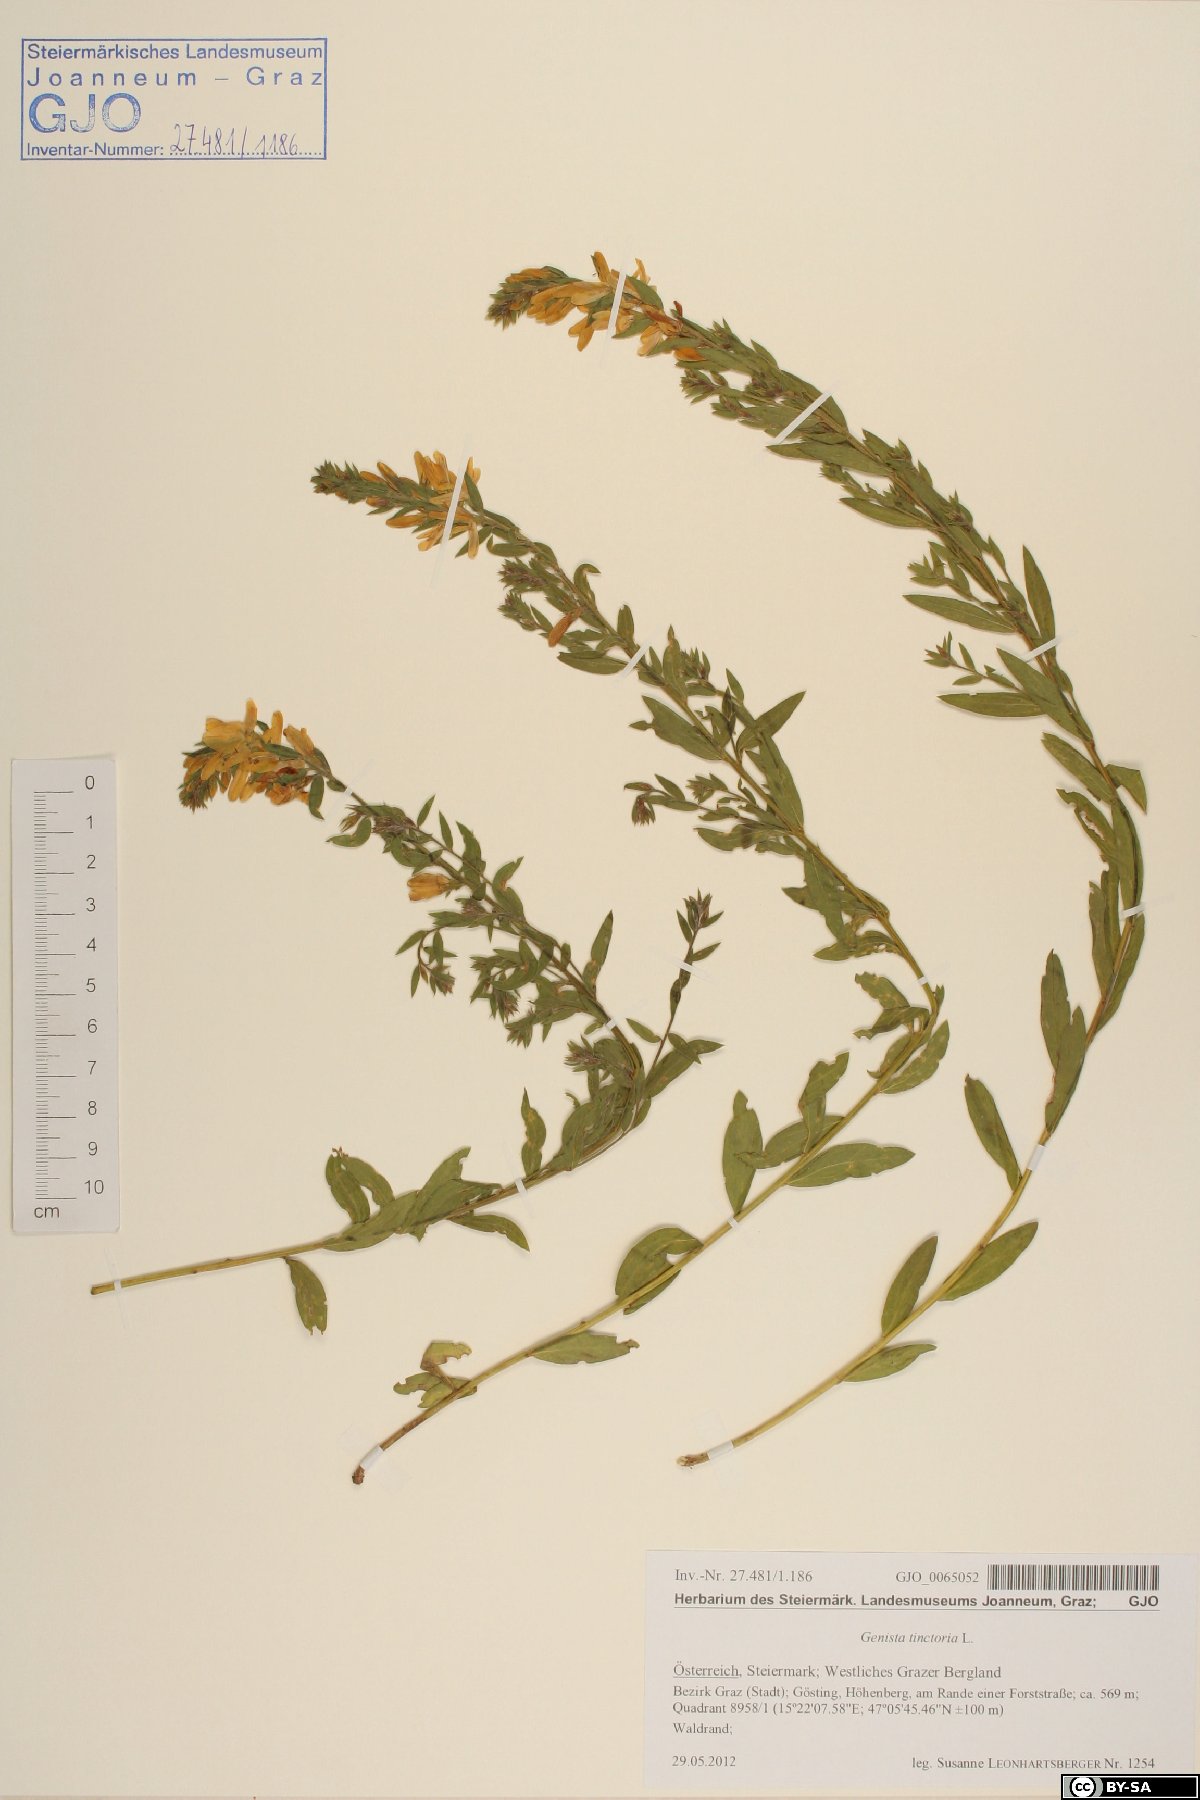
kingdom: Plantae
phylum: Tracheophyta
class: Magnoliopsida
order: Fabales
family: Fabaceae
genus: Genista
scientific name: Genista tinctoria
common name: Dyer's greenweed
